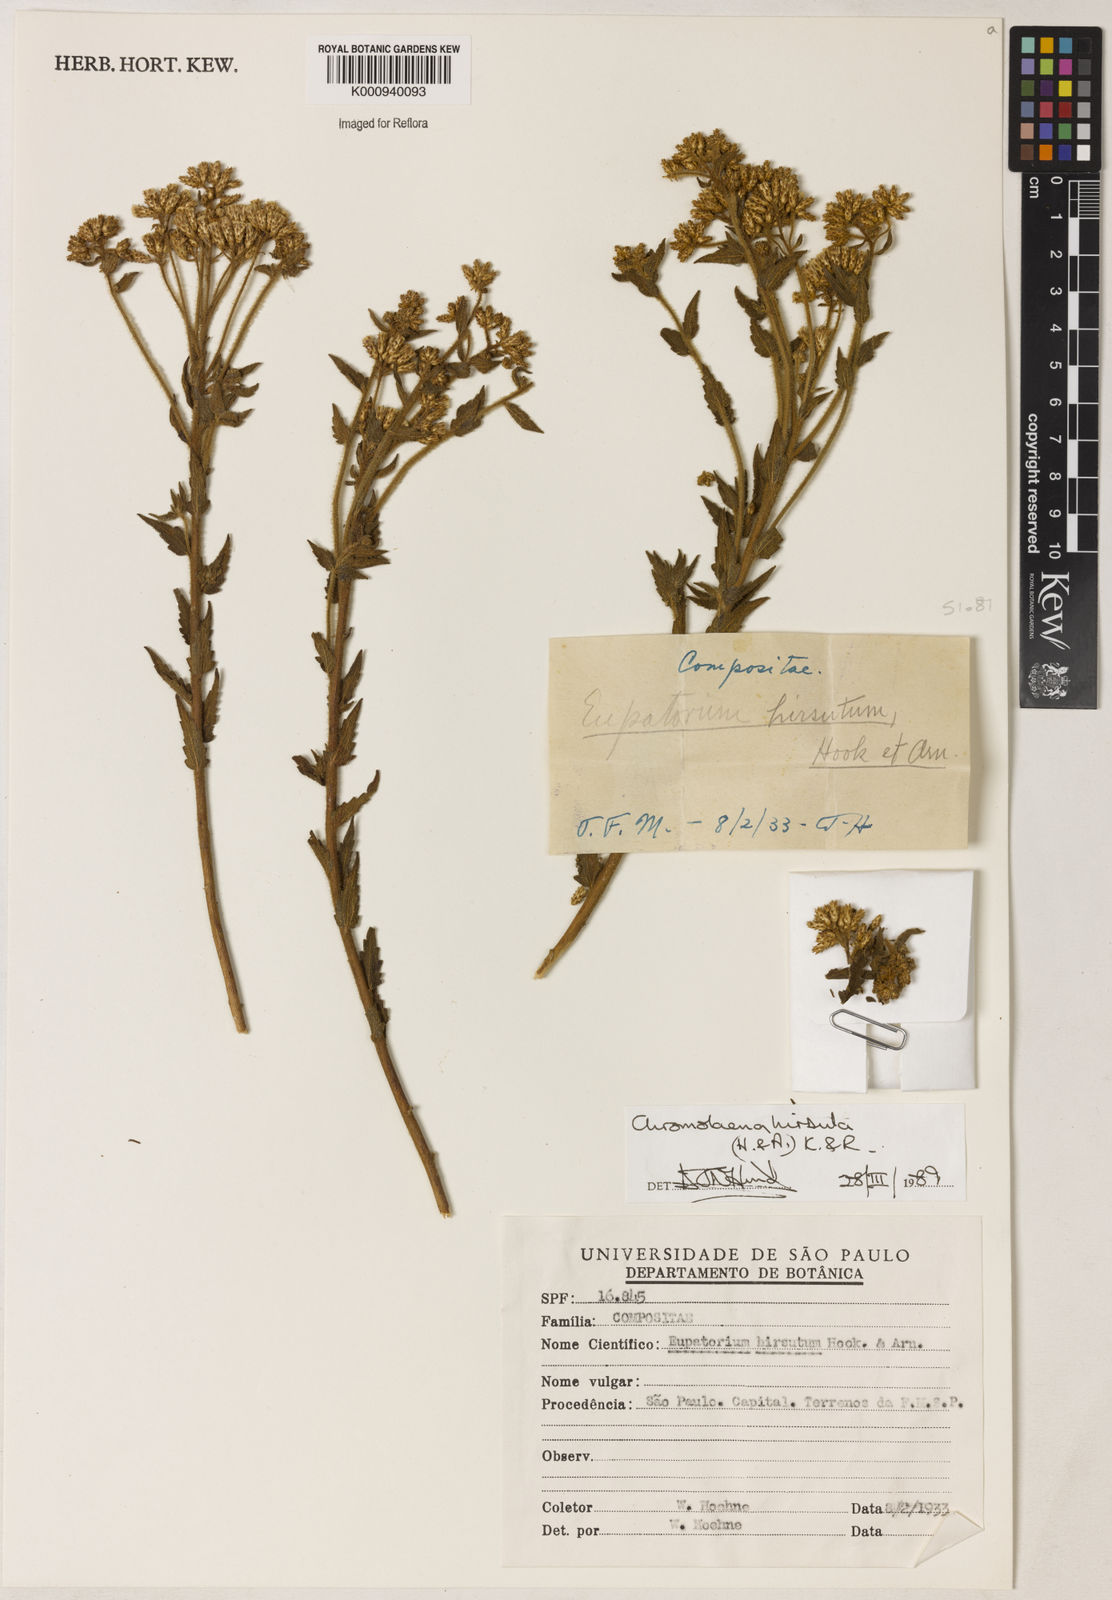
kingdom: Plantae
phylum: Tracheophyta
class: Magnoliopsida
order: Asterales
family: Asteraceae
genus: Chromolaena
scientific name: Chromolaena hirsuta
